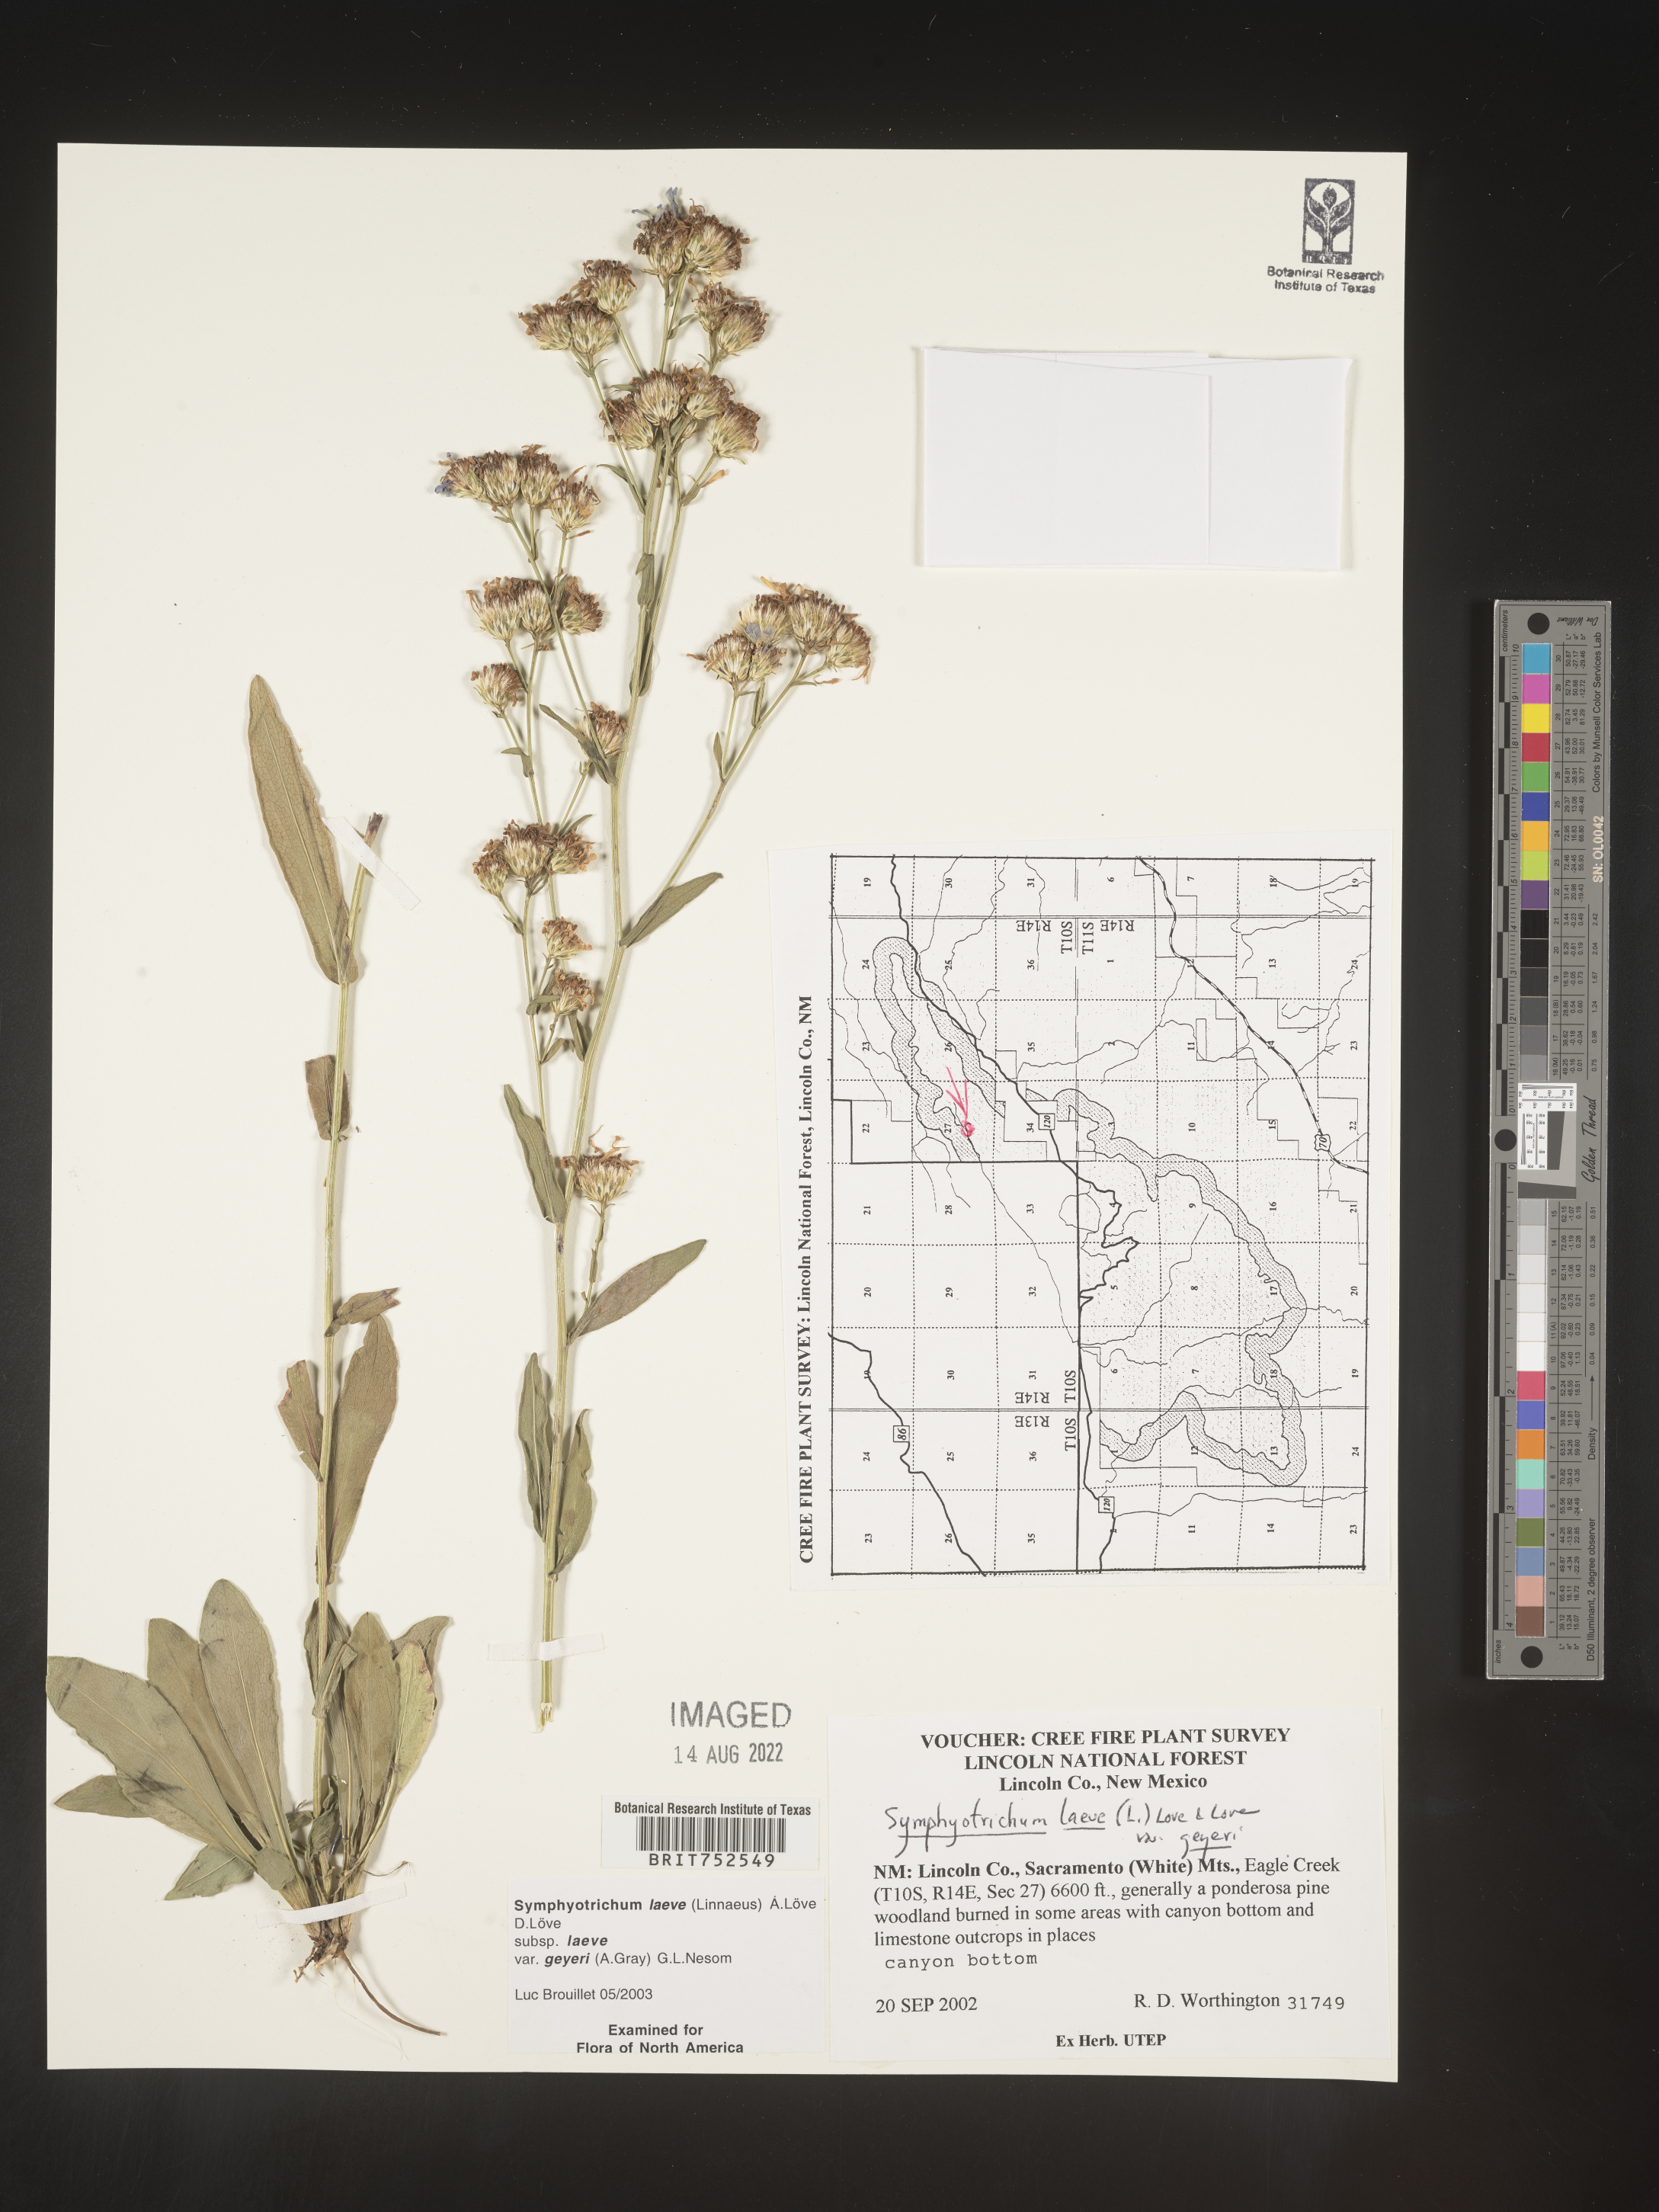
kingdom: Plantae
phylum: Tracheophyta
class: Magnoliopsida
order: Asterales
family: Asteraceae
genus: Symphyotrichum
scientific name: Symphyotrichum laeve
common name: Glaucous aster
